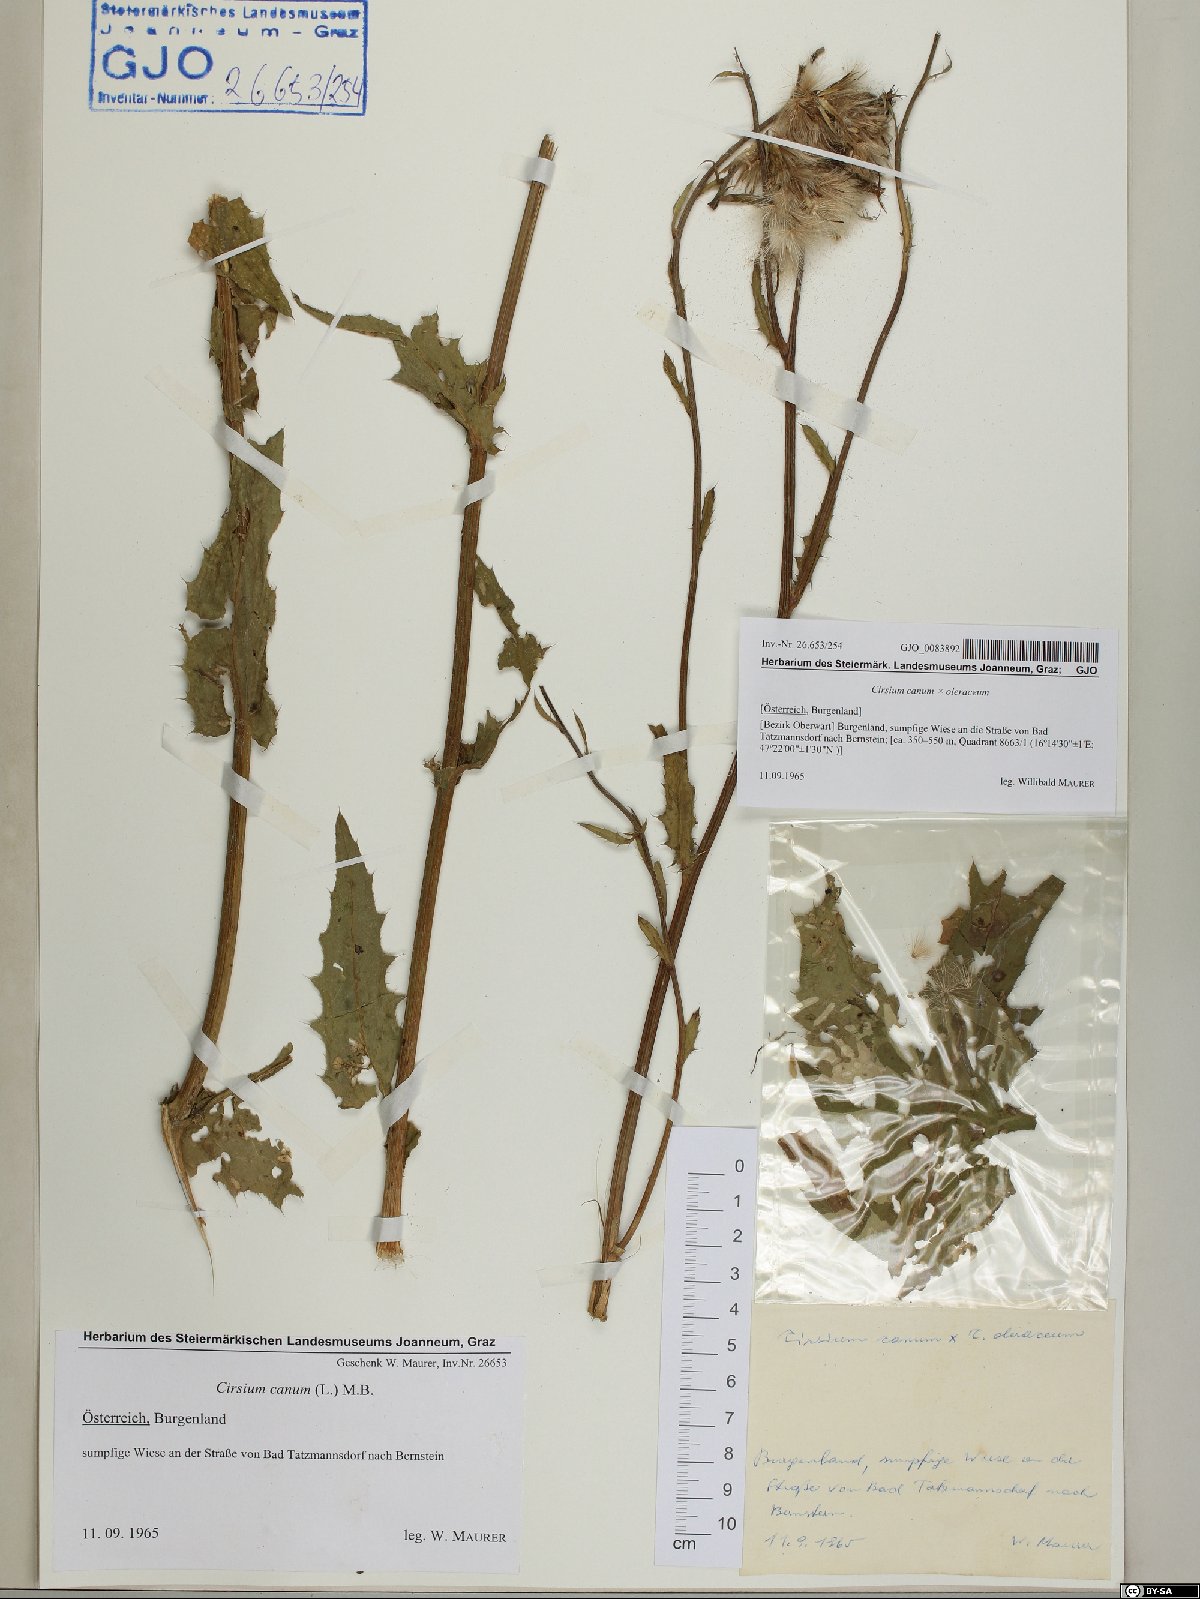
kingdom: Plantae
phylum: Tracheophyta
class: Magnoliopsida
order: Asterales
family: Asteraceae
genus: Cirsium
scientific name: Cirsium canum
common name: Queen anne's thistle
